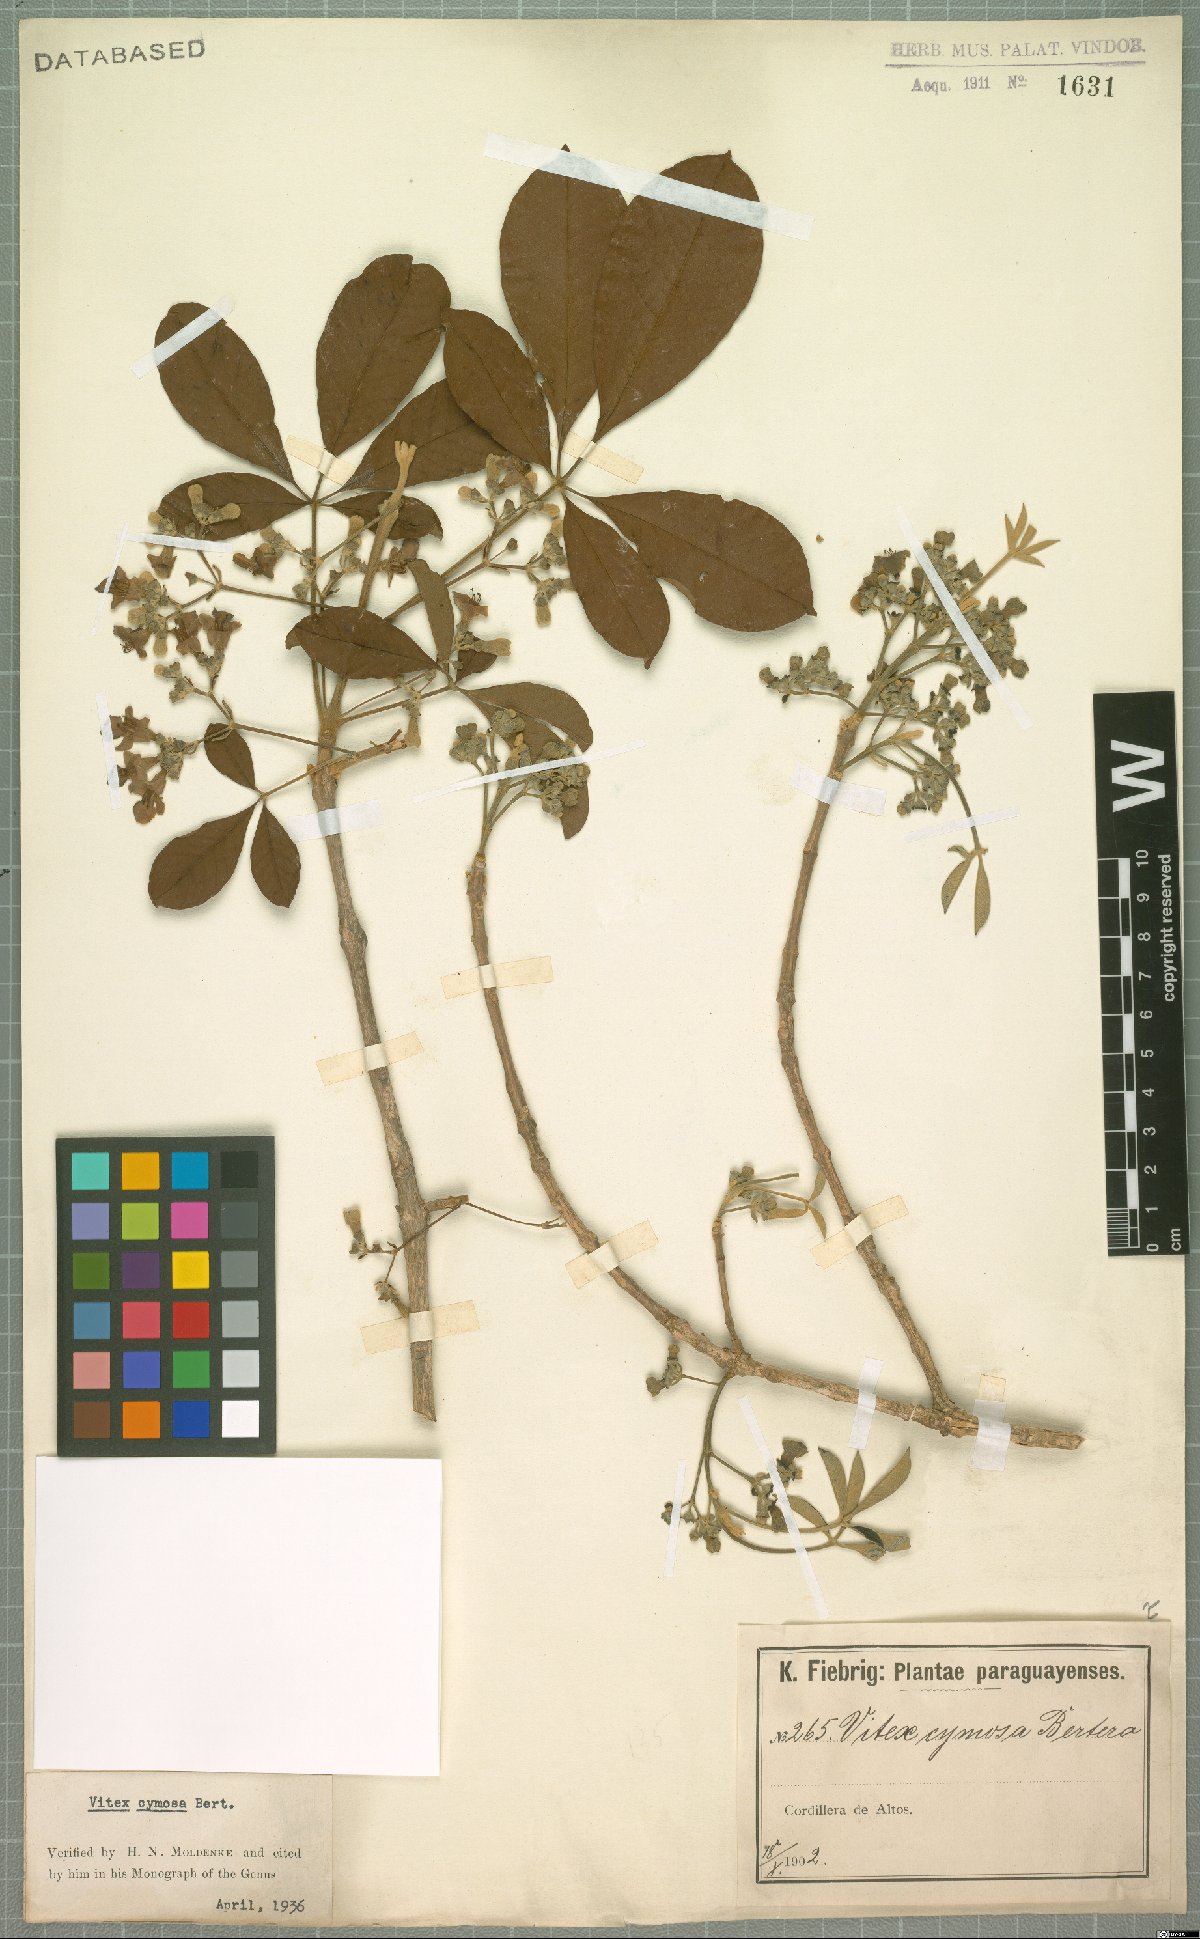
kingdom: Plantae
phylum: Tracheophyta
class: Magnoliopsida
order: Lamiales
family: Lamiaceae
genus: Vitex
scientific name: Vitex cymosa
